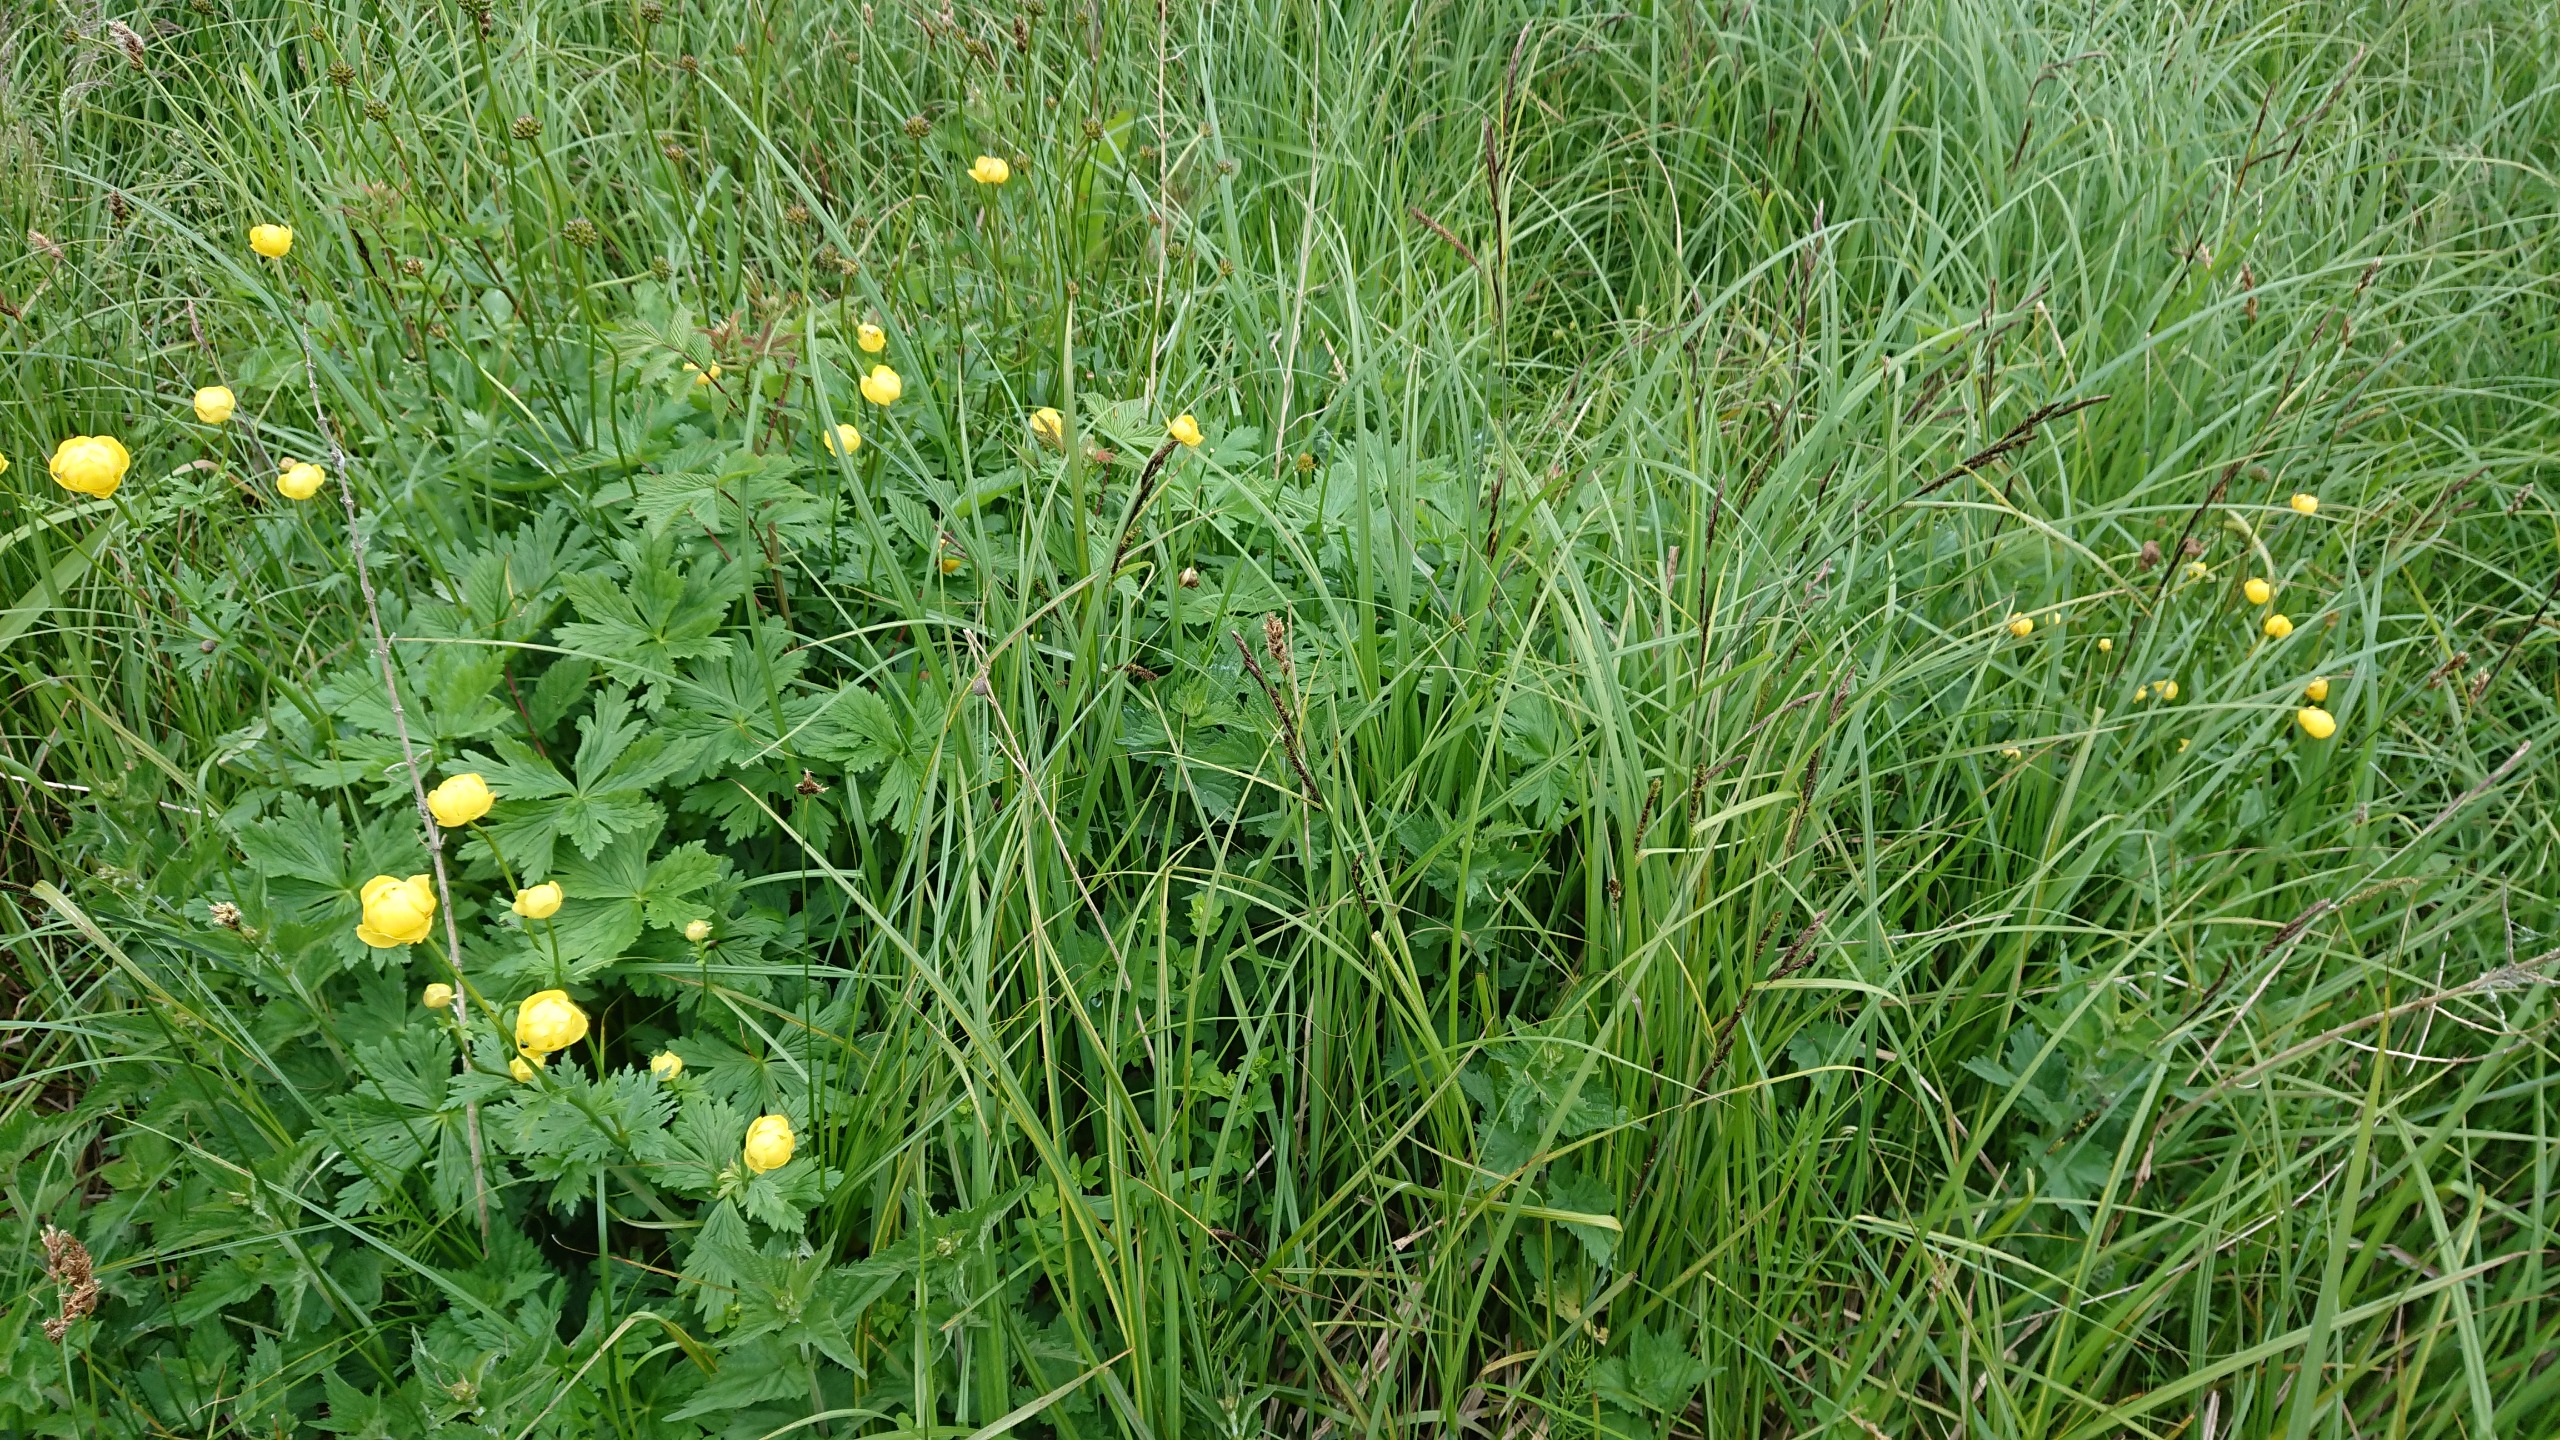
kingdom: Plantae
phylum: Tracheophyta
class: Magnoliopsida
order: Ranunculales
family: Ranunculaceae
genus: Trollius
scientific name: Trollius europaeus
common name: Engblomme
